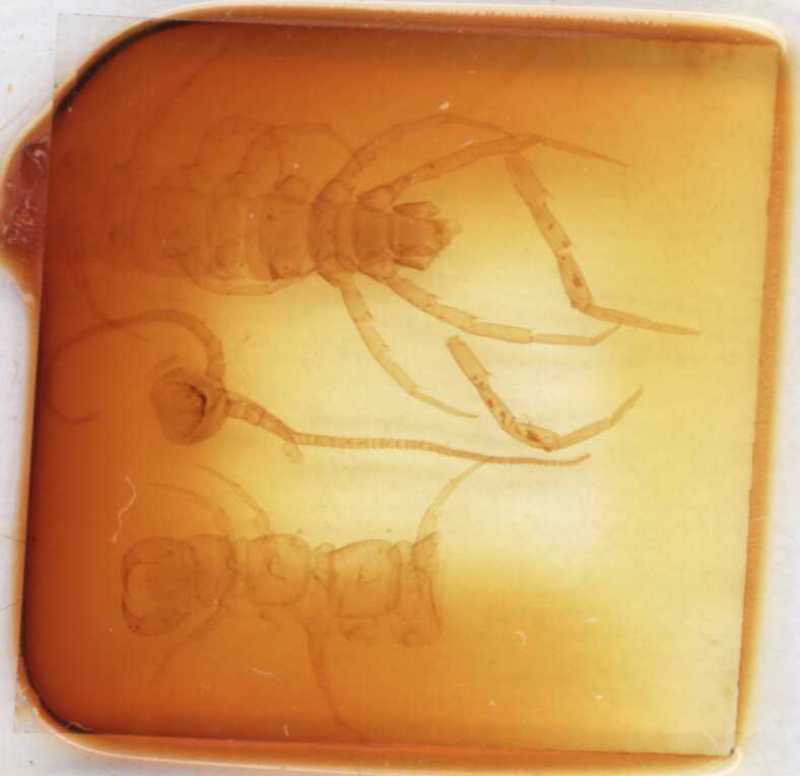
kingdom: Animalia
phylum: Arthropoda
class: Chilopoda
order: Lithobiomorpha
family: Lithobiidae
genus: Lithobius
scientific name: Lithobius nodulipes
